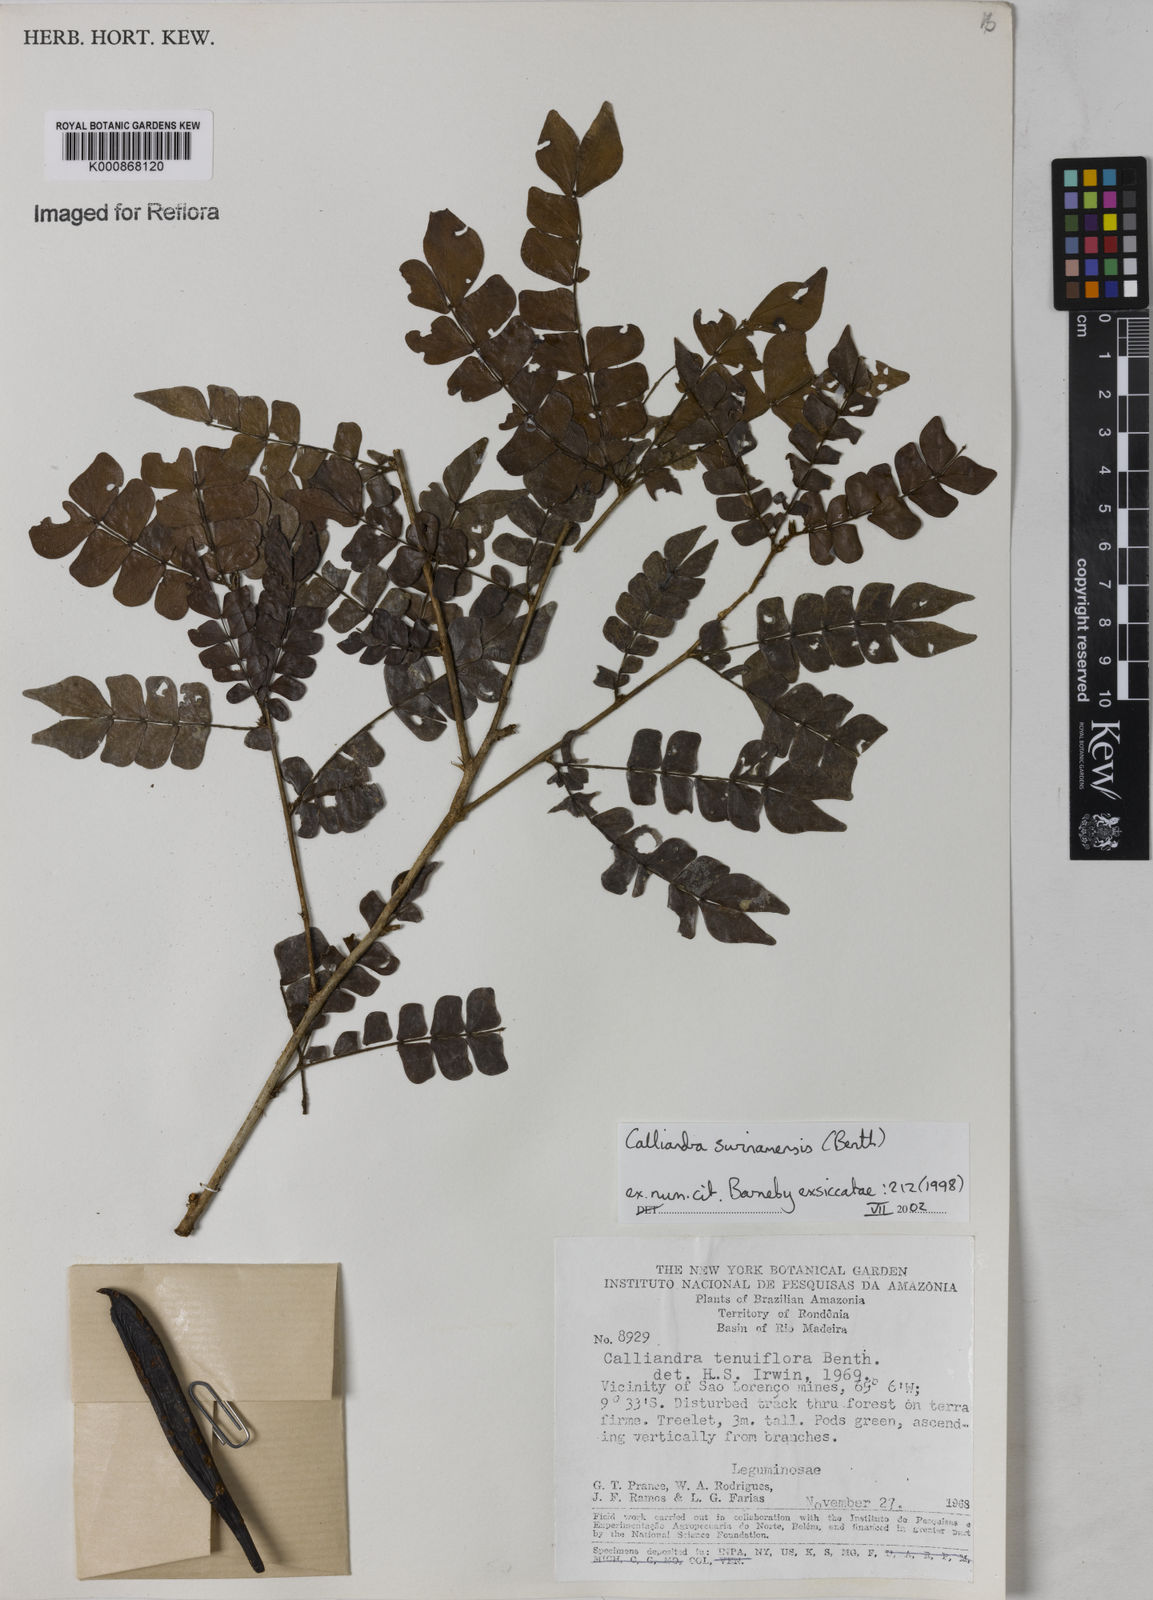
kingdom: Plantae
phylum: Tracheophyta
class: Magnoliopsida
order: Fabales
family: Fabaceae
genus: Calliandra
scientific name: Calliandra surinamensis
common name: Pink powder puff
